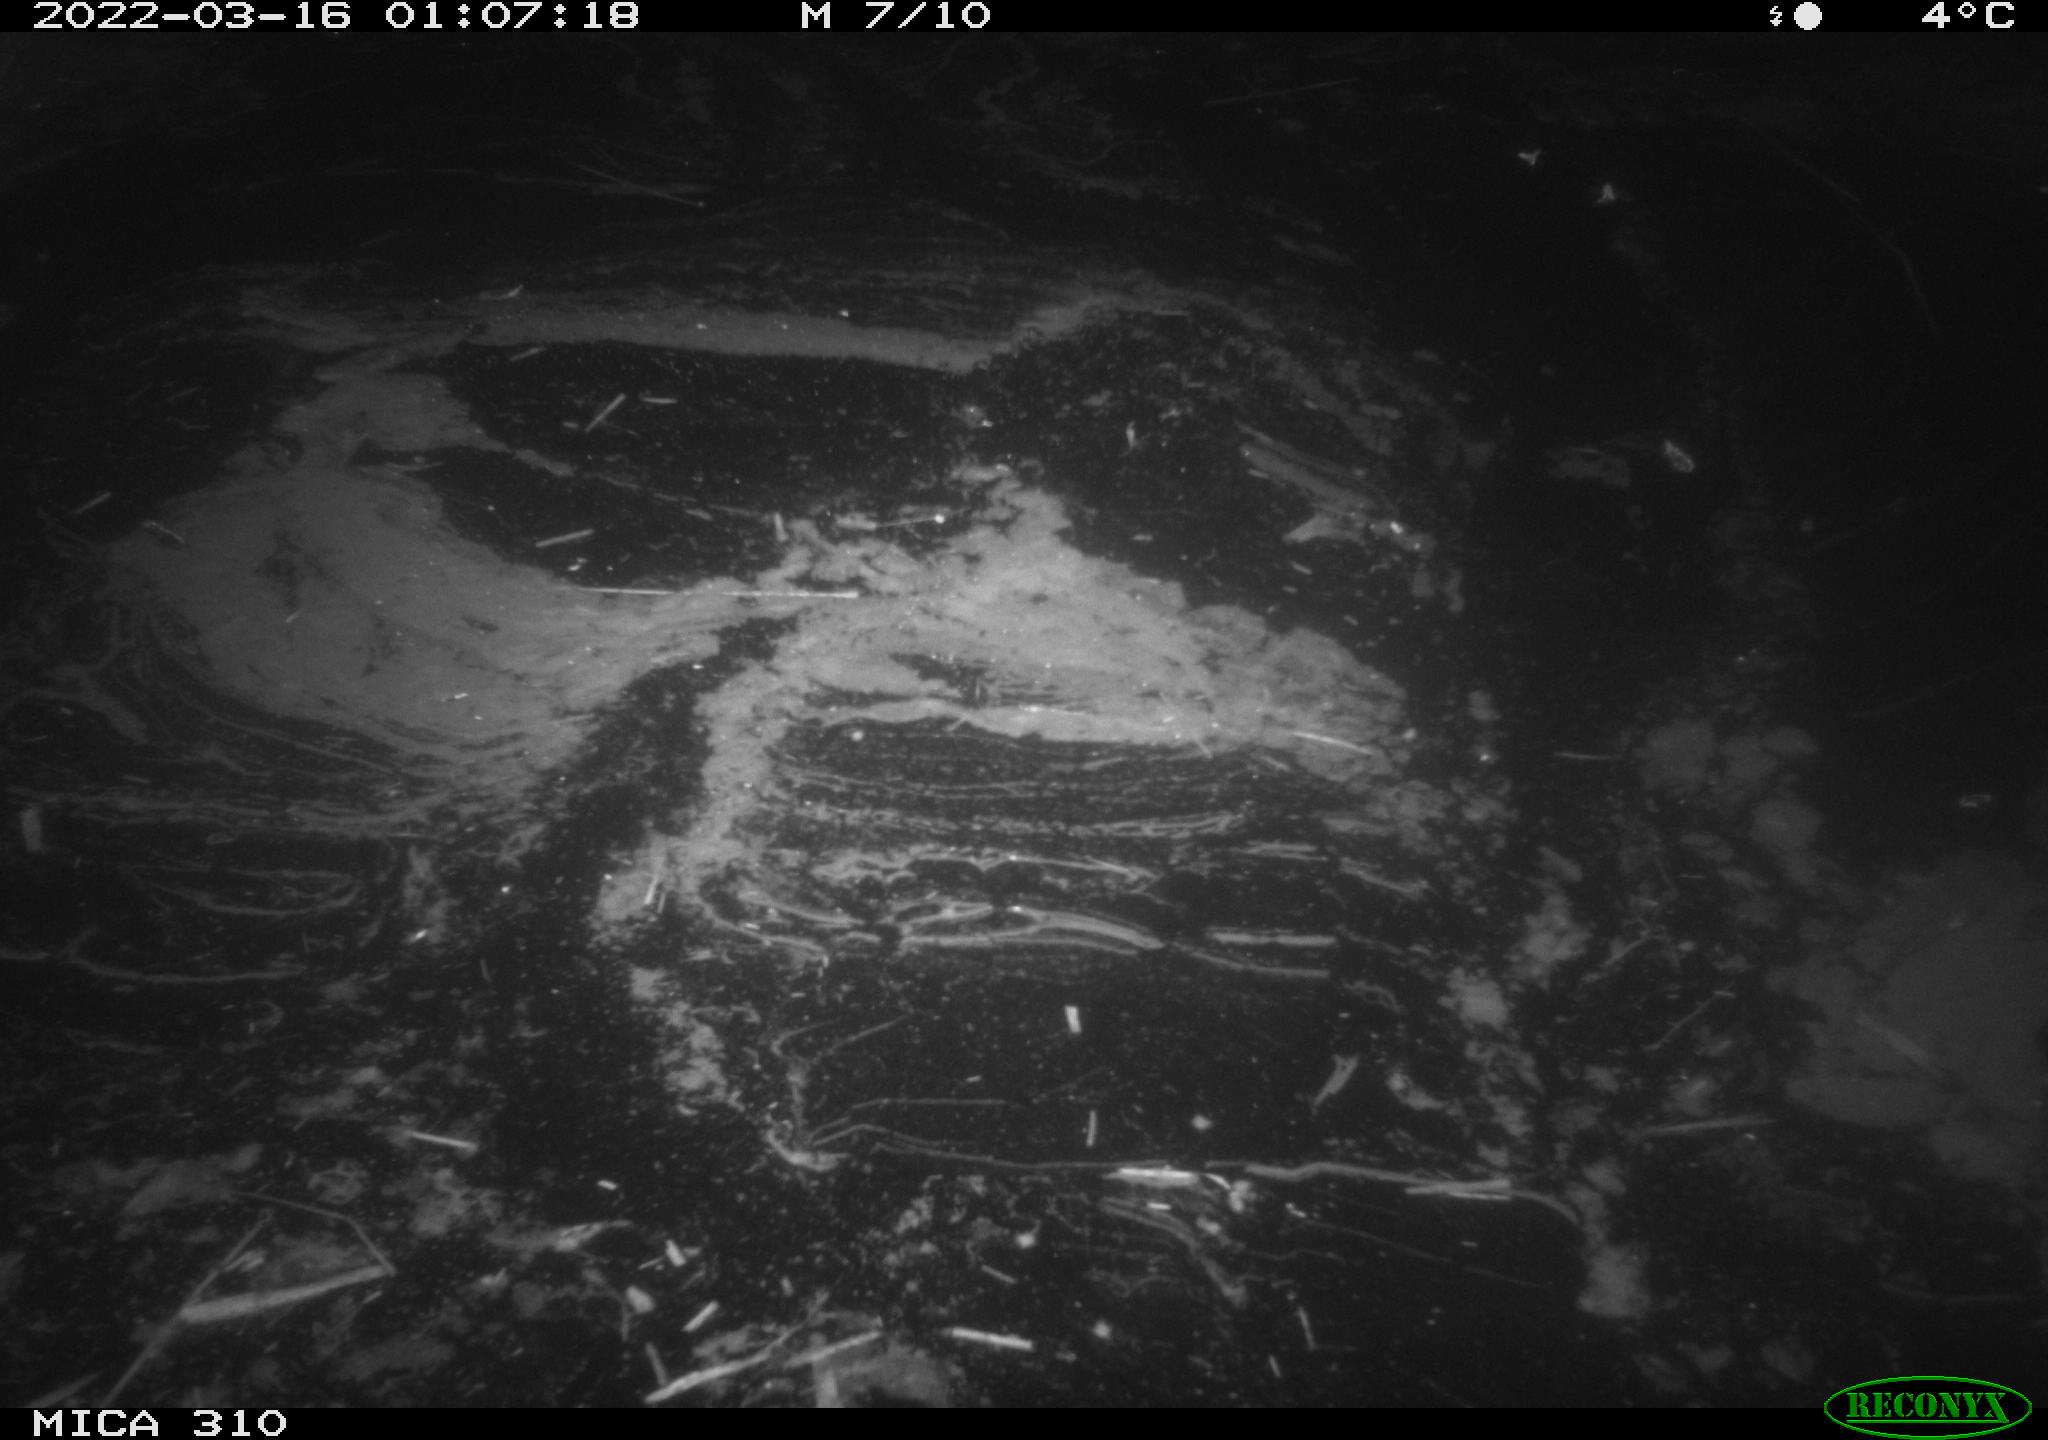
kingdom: Animalia
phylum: Chordata
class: Aves
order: Anseriformes
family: Anatidae
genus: Anas
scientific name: Anas platyrhynchos
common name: Mallard
